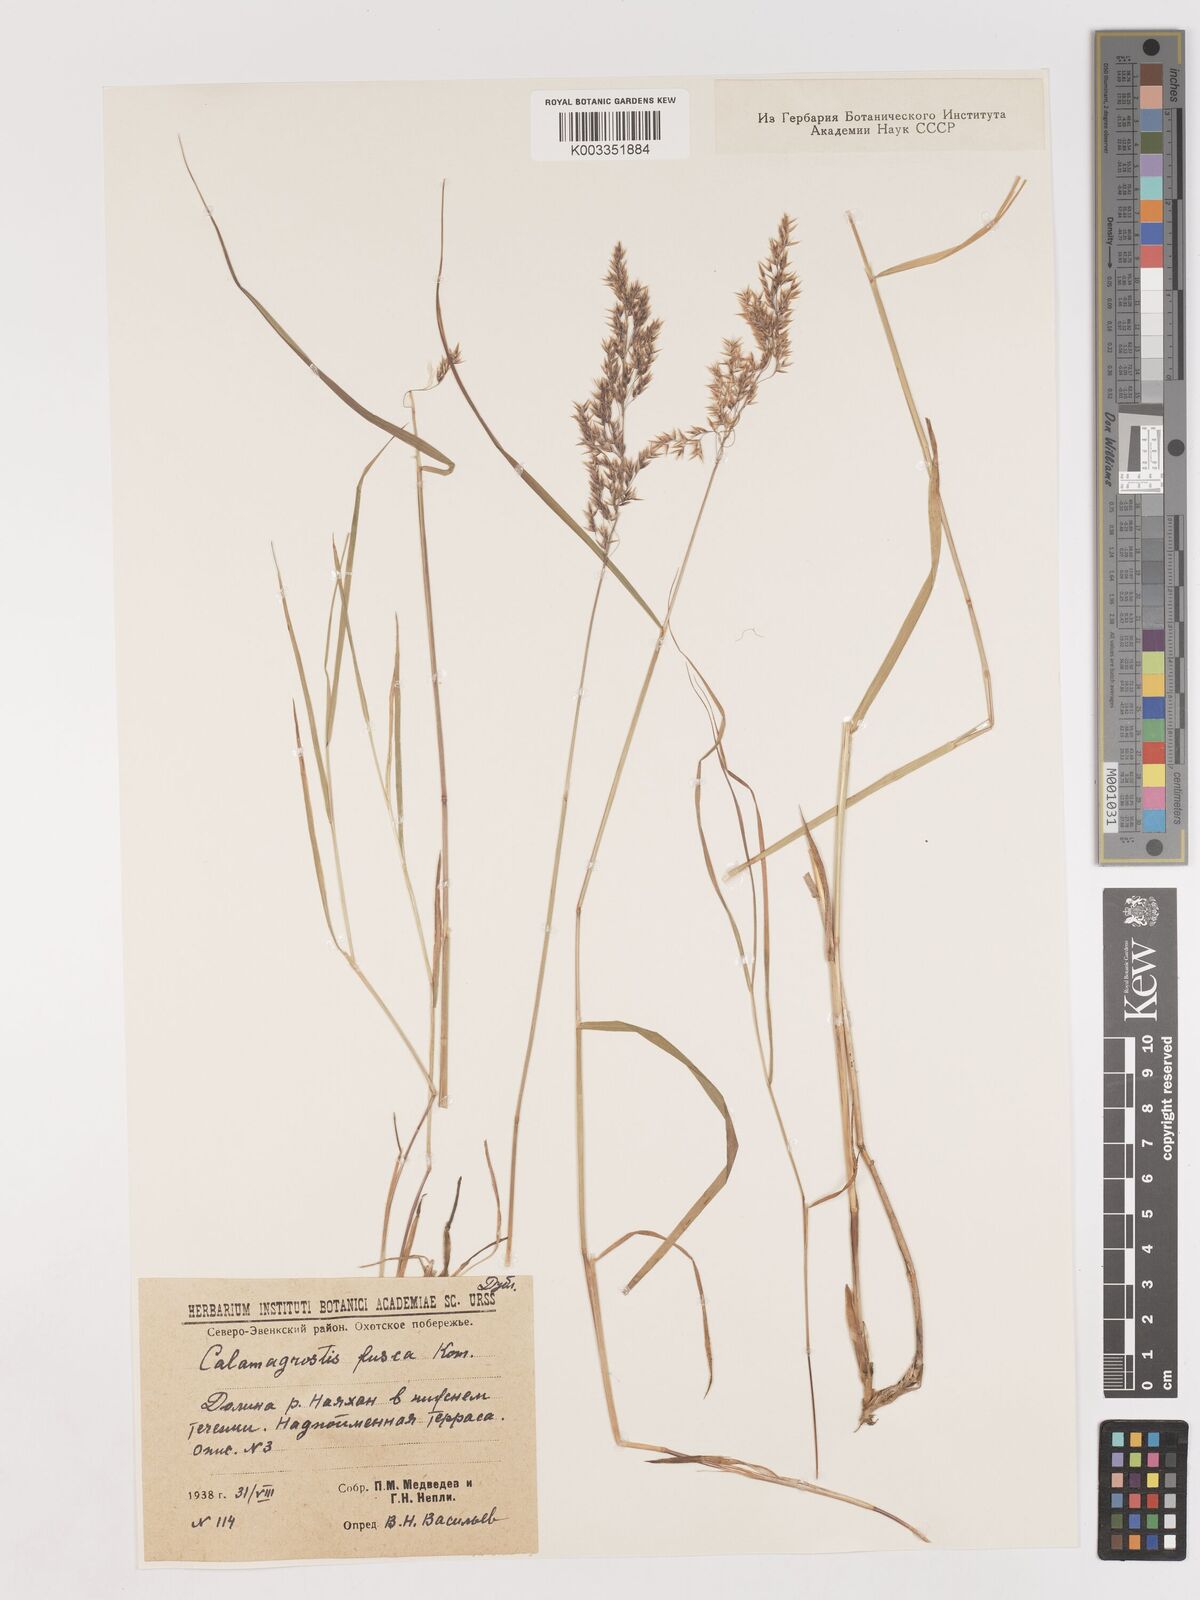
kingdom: Plantae
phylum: Tracheophyta
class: Liliopsida
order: Poales
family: Poaceae
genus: Calamagrostis
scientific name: Calamagrostis purpurea
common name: Scandinavian small-reed
